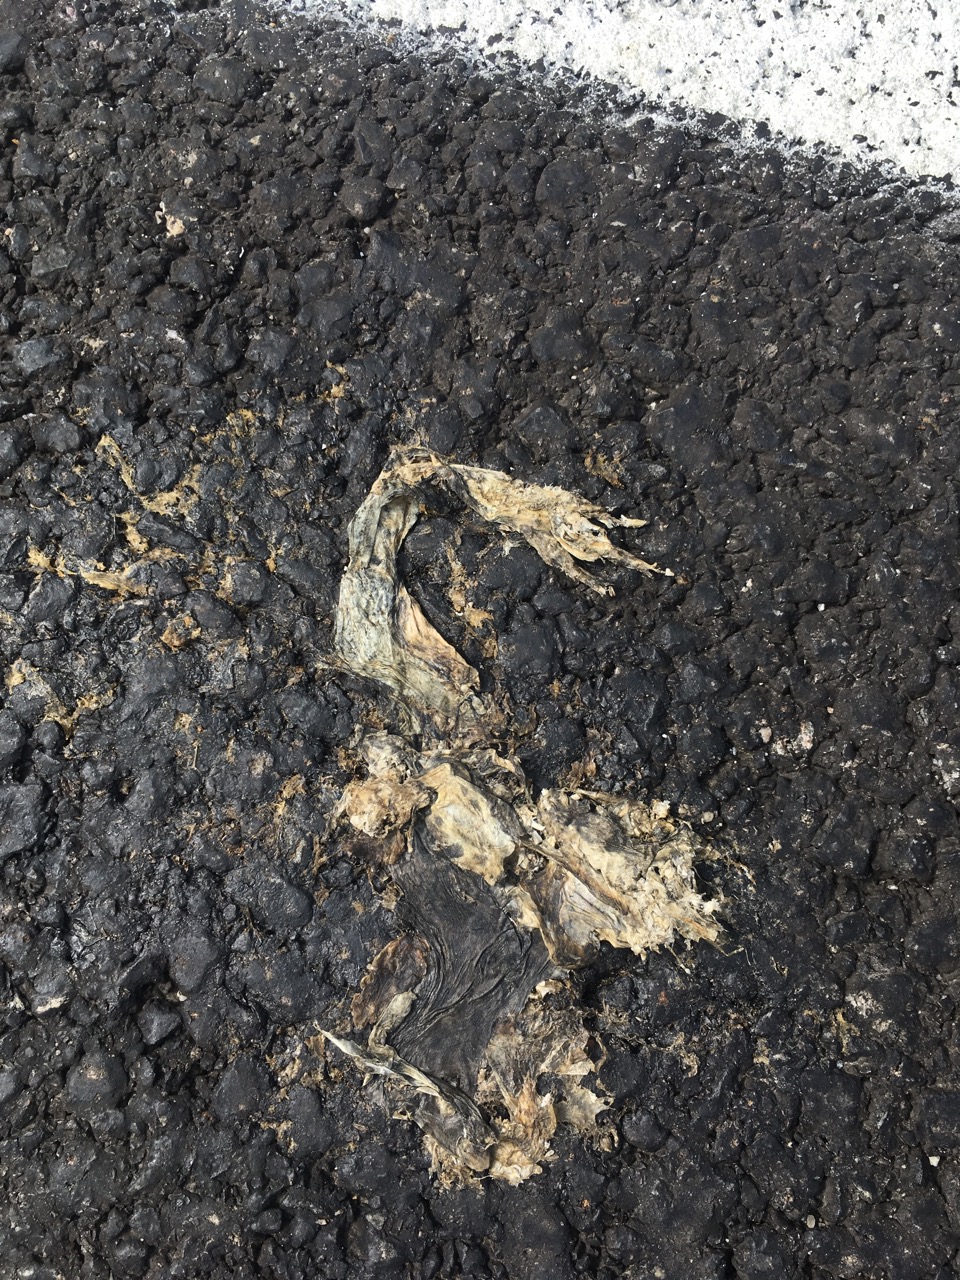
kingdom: Animalia
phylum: Chordata
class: Amphibia
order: Anura
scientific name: Anura
